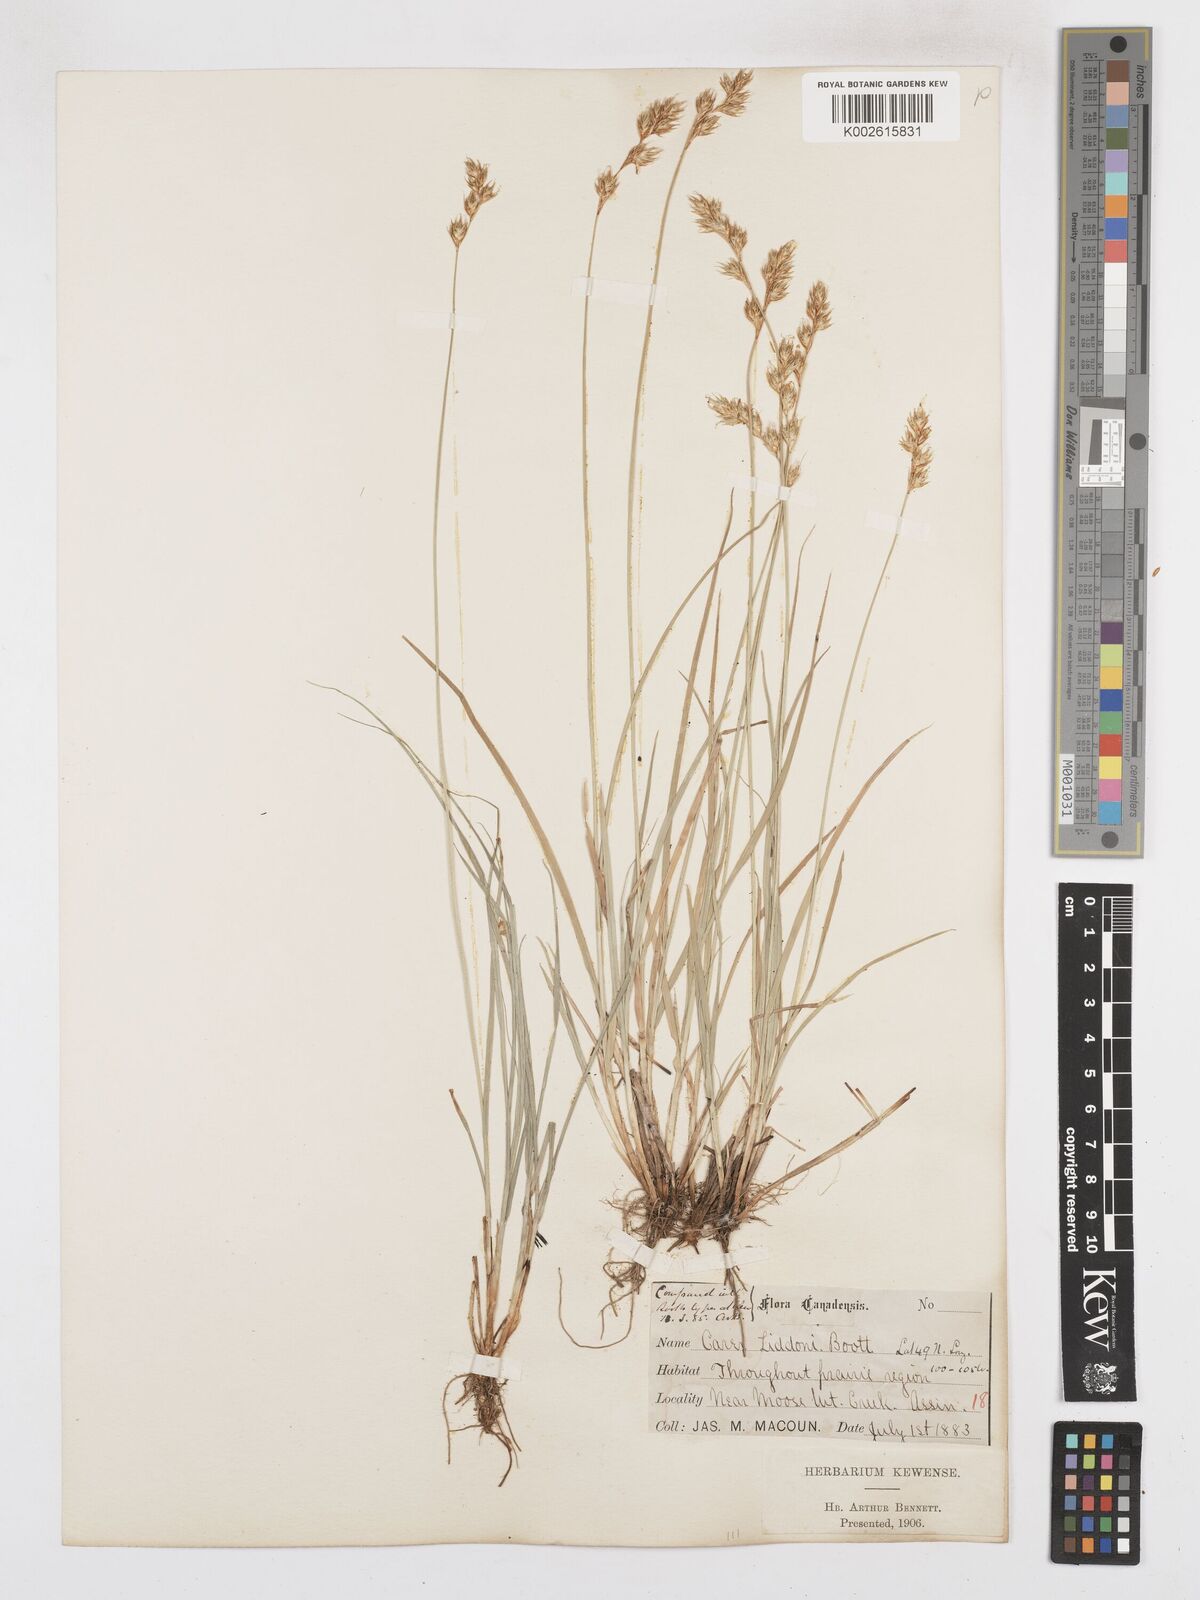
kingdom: Plantae
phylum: Tracheophyta
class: Liliopsida
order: Poales
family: Cyperaceae
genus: Carex
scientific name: Carex petasata
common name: Liddon's sedge
